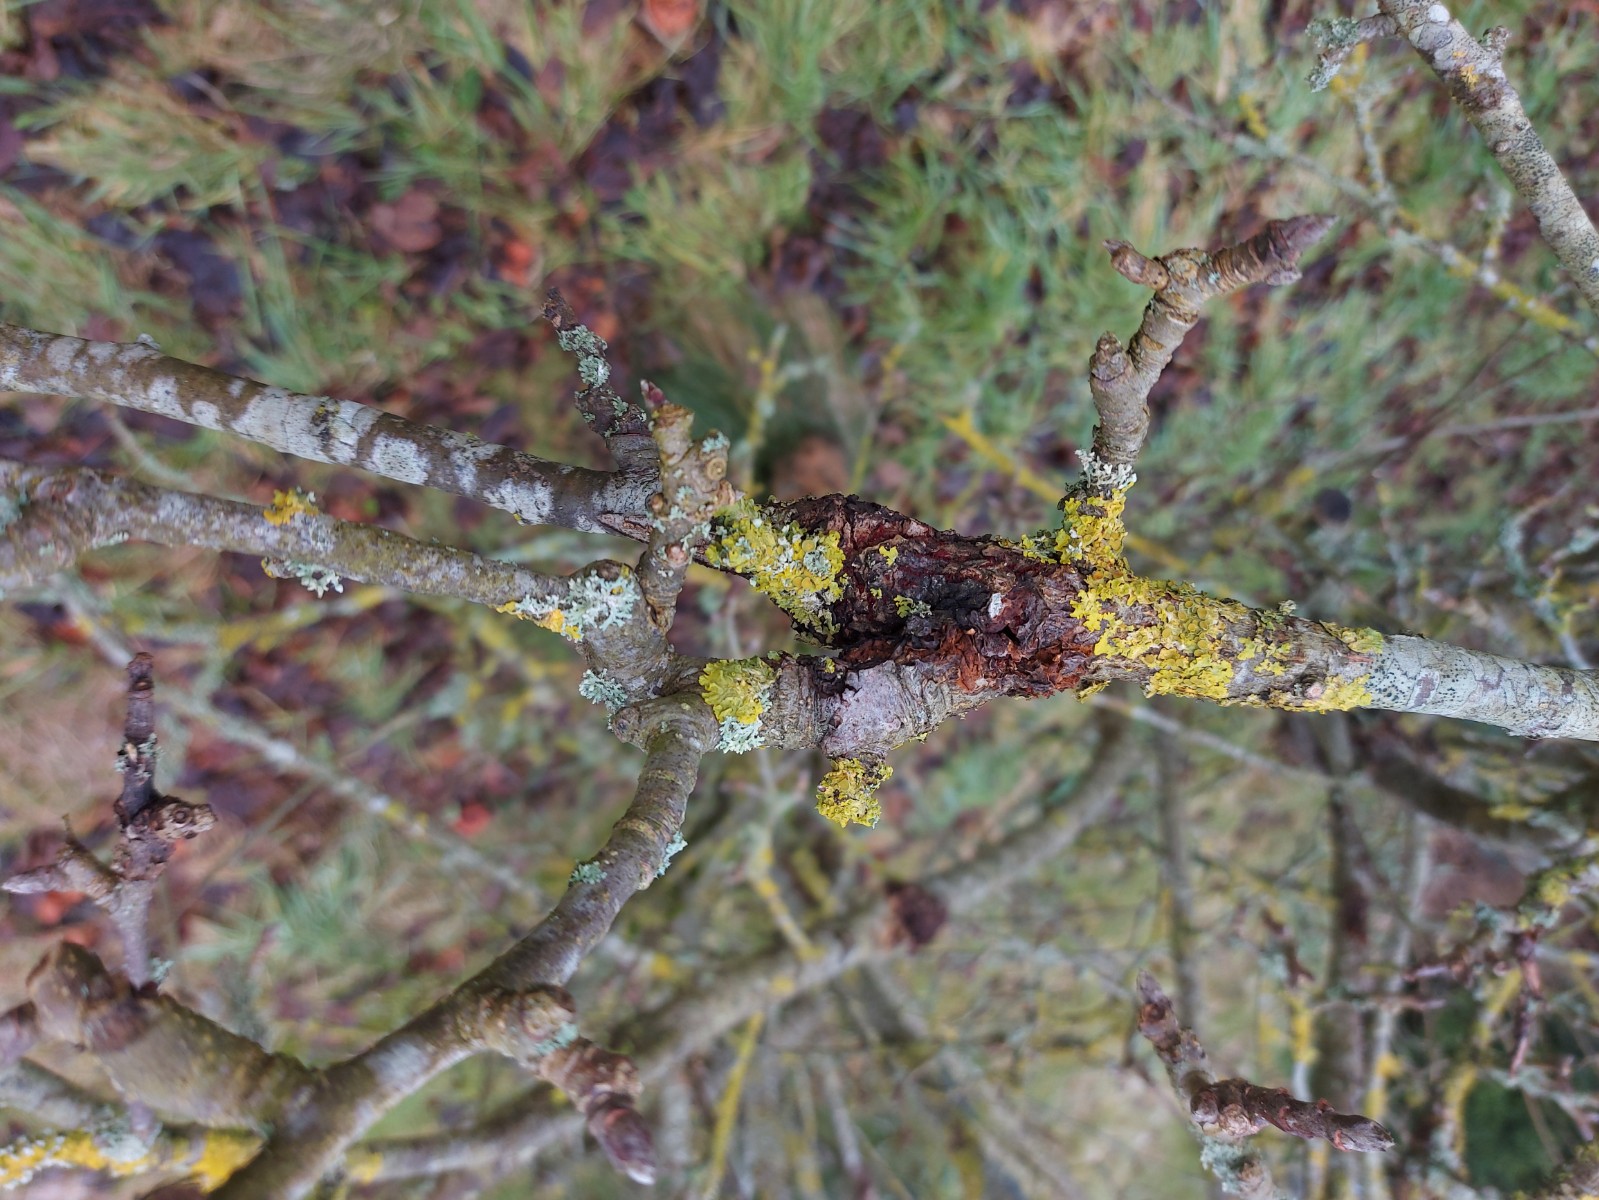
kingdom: Fungi
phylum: Ascomycota
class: Sordariomycetes
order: Hypocreales
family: Nectriaceae
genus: Neonectria
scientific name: Neonectria ditissima
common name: frugttræ-cinnobersvamp
